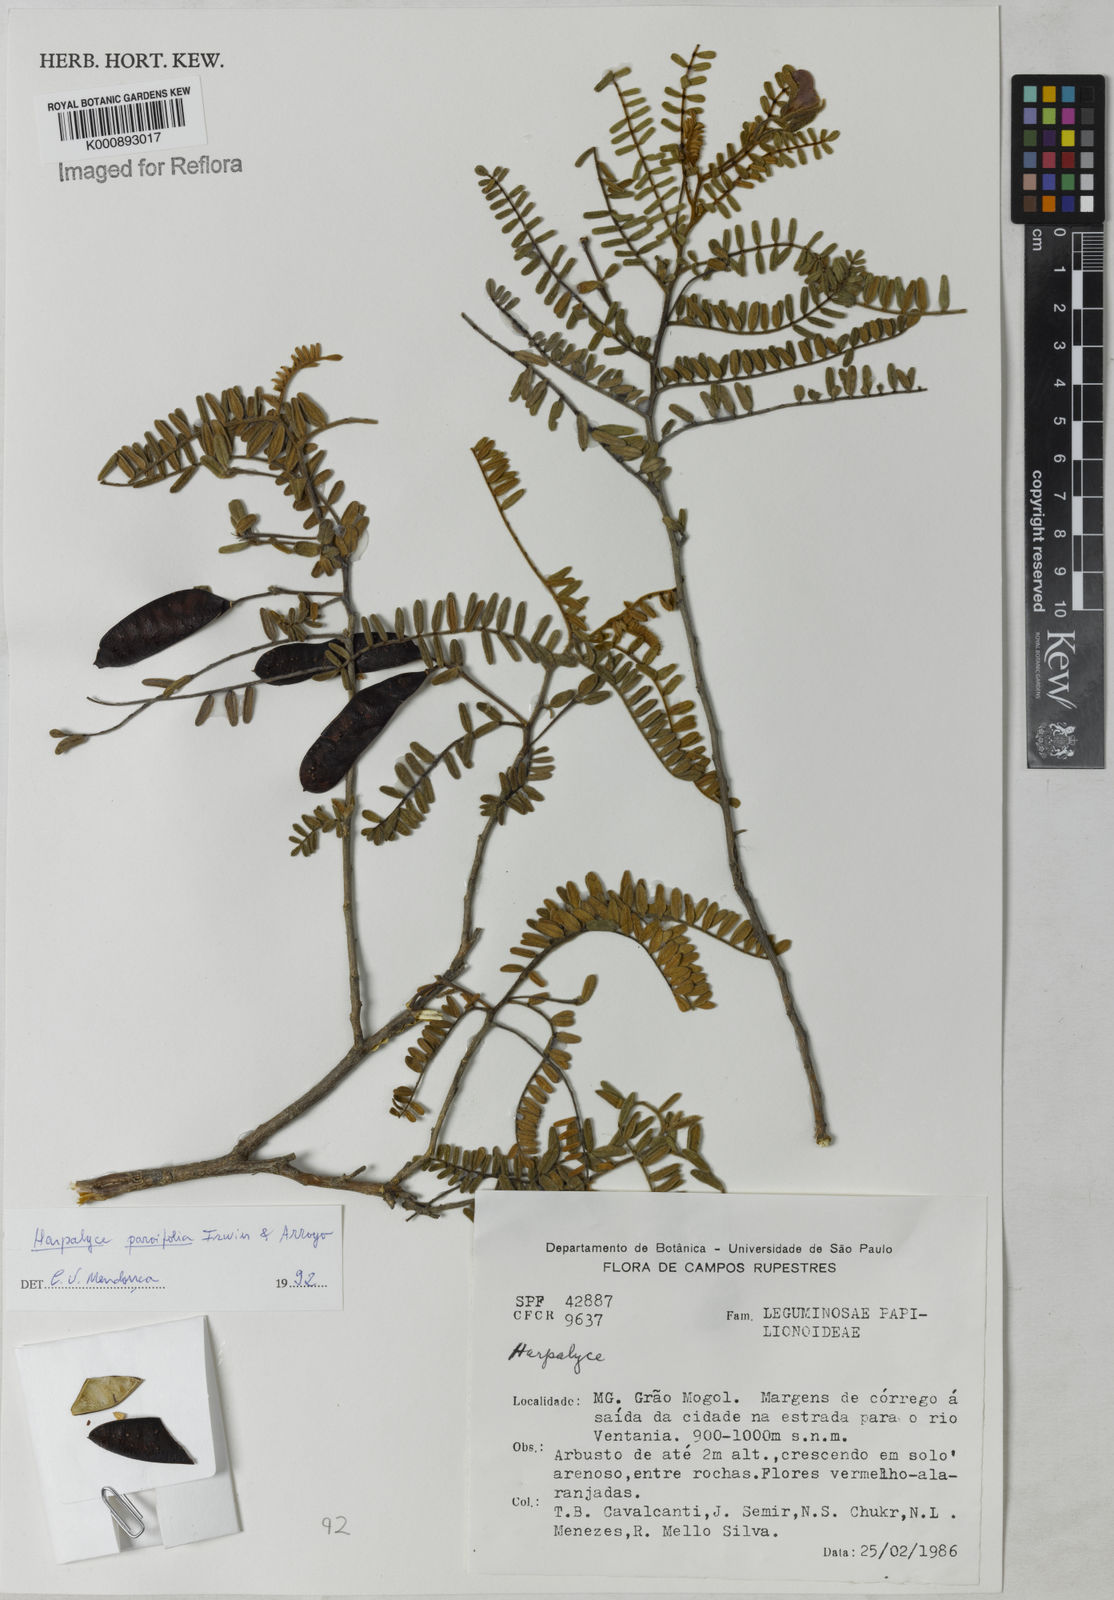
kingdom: Plantae
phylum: Tracheophyta
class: Magnoliopsida
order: Fabales
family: Fabaceae
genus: Harpalyce
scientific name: Harpalyce parvifolia
